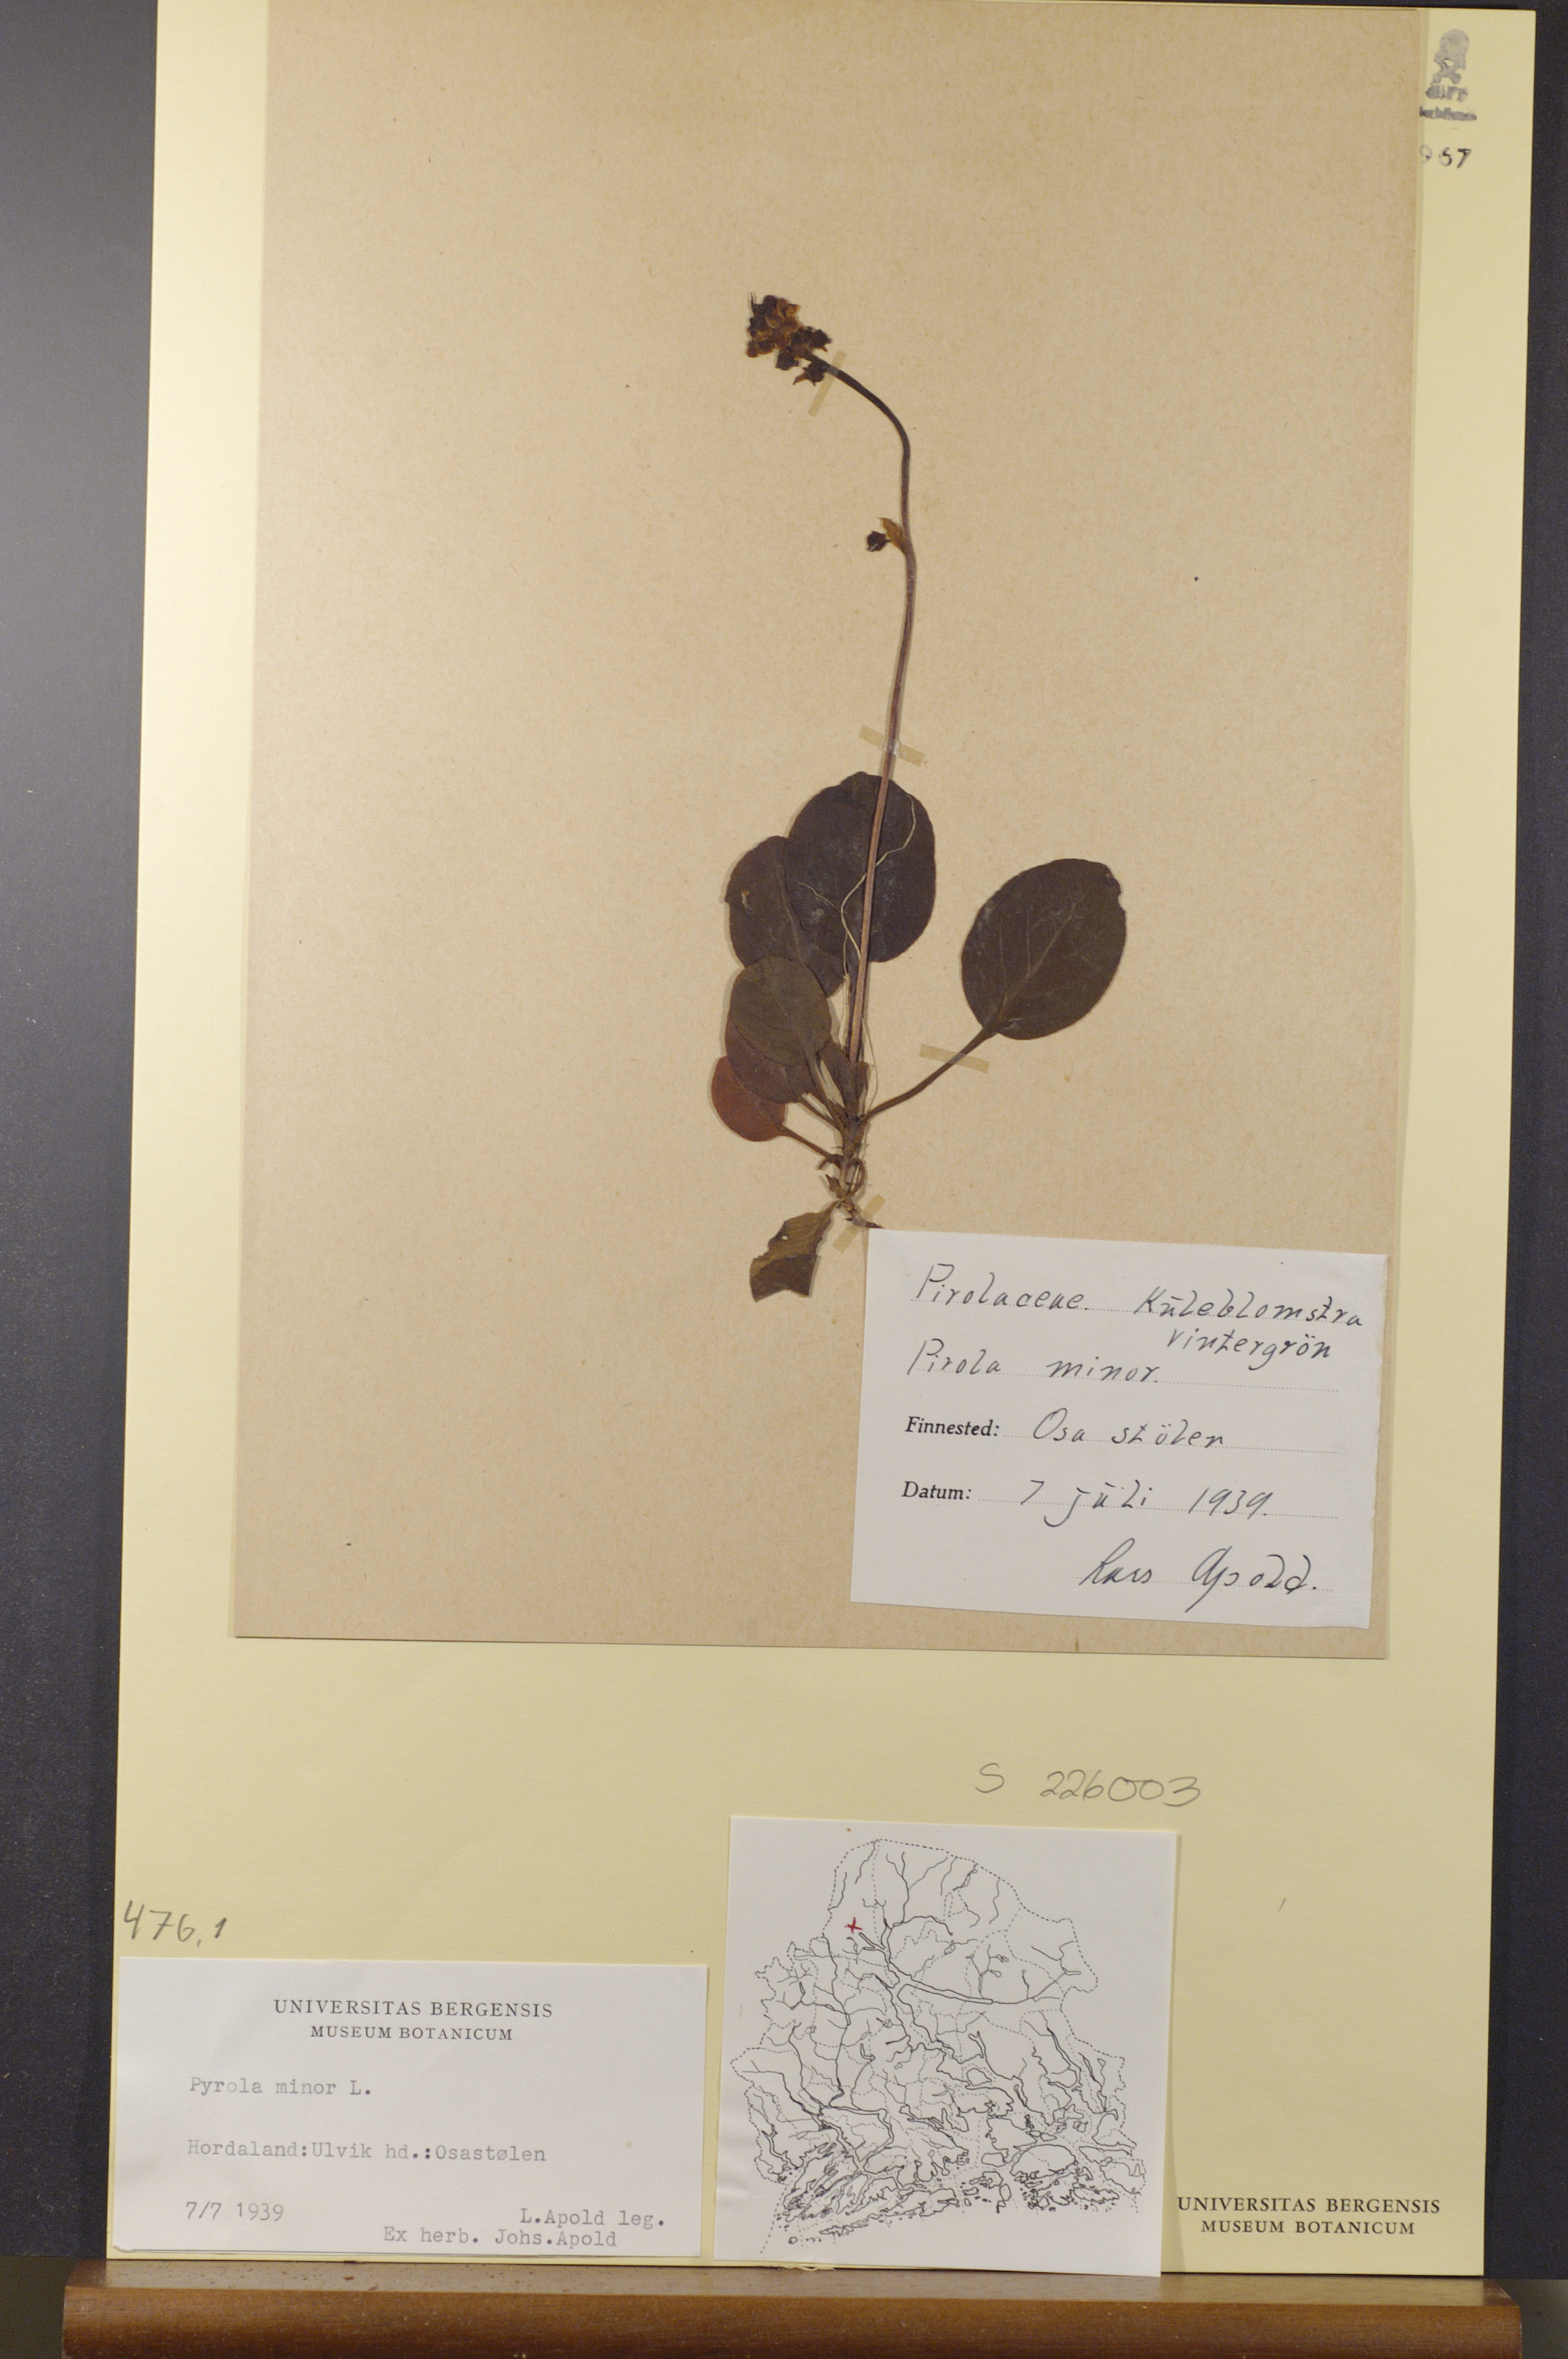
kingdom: Plantae
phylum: Tracheophyta
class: Magnoliopsida
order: Ericales
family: Ericaceae
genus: Pyrola
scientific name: Pyrola minor
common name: Common wintergreen
